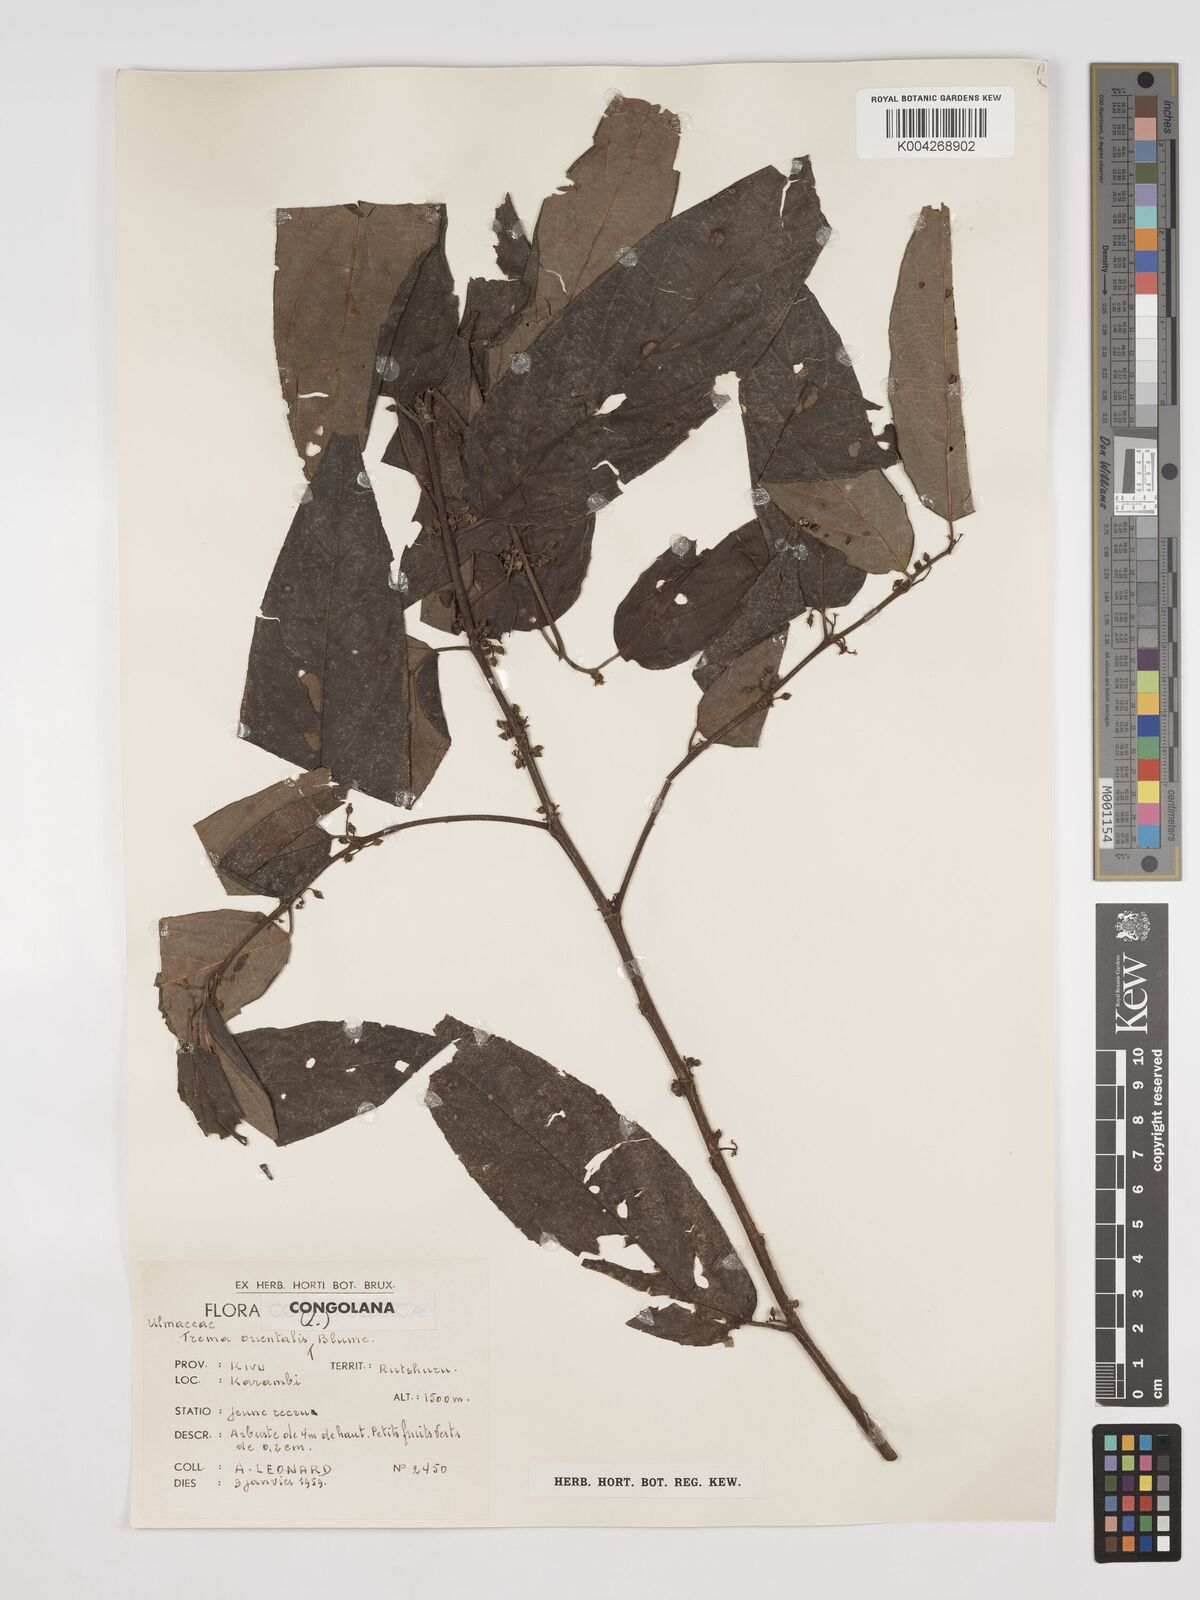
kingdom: Plantae
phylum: Tracheophyta
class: Magnoliopsida
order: Rosales
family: Cannabaceae
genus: Trema
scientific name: Trema orientale
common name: Indian charcoal tree
